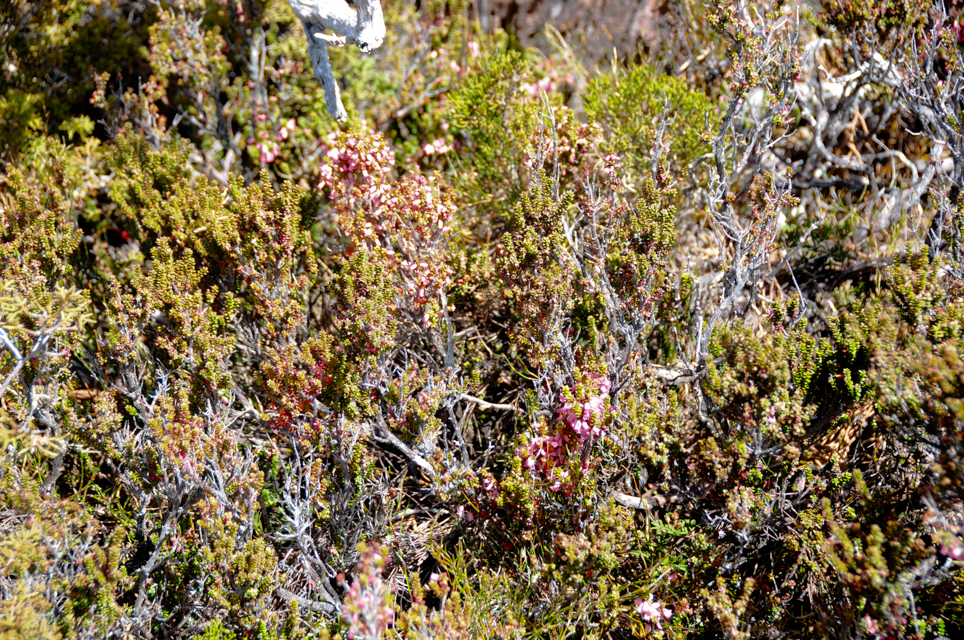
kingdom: Plantae
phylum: Tracheophyta
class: Magnoliopsida
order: Ericales
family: Ericaceae
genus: Archeria
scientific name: Archeria comberi
